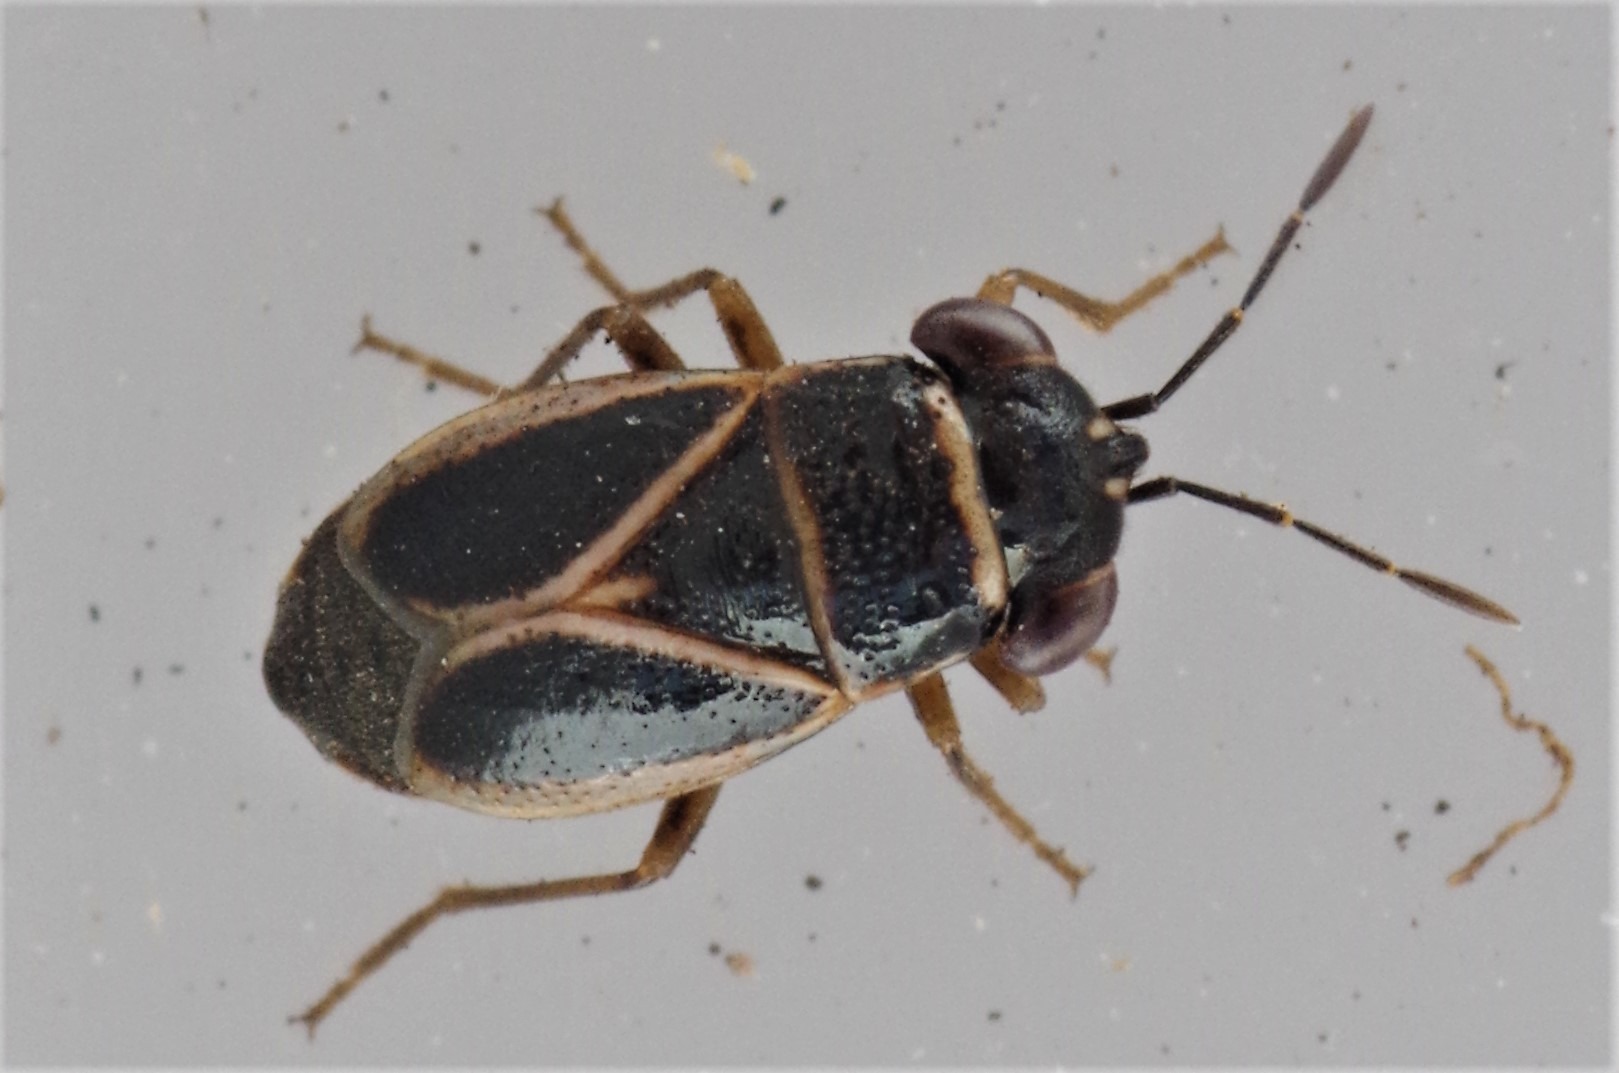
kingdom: Animalia
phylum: Arthropoda
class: Insecta
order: Hemiptera
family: Geocoridae
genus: Geocoris
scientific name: Geocoris grylloides
